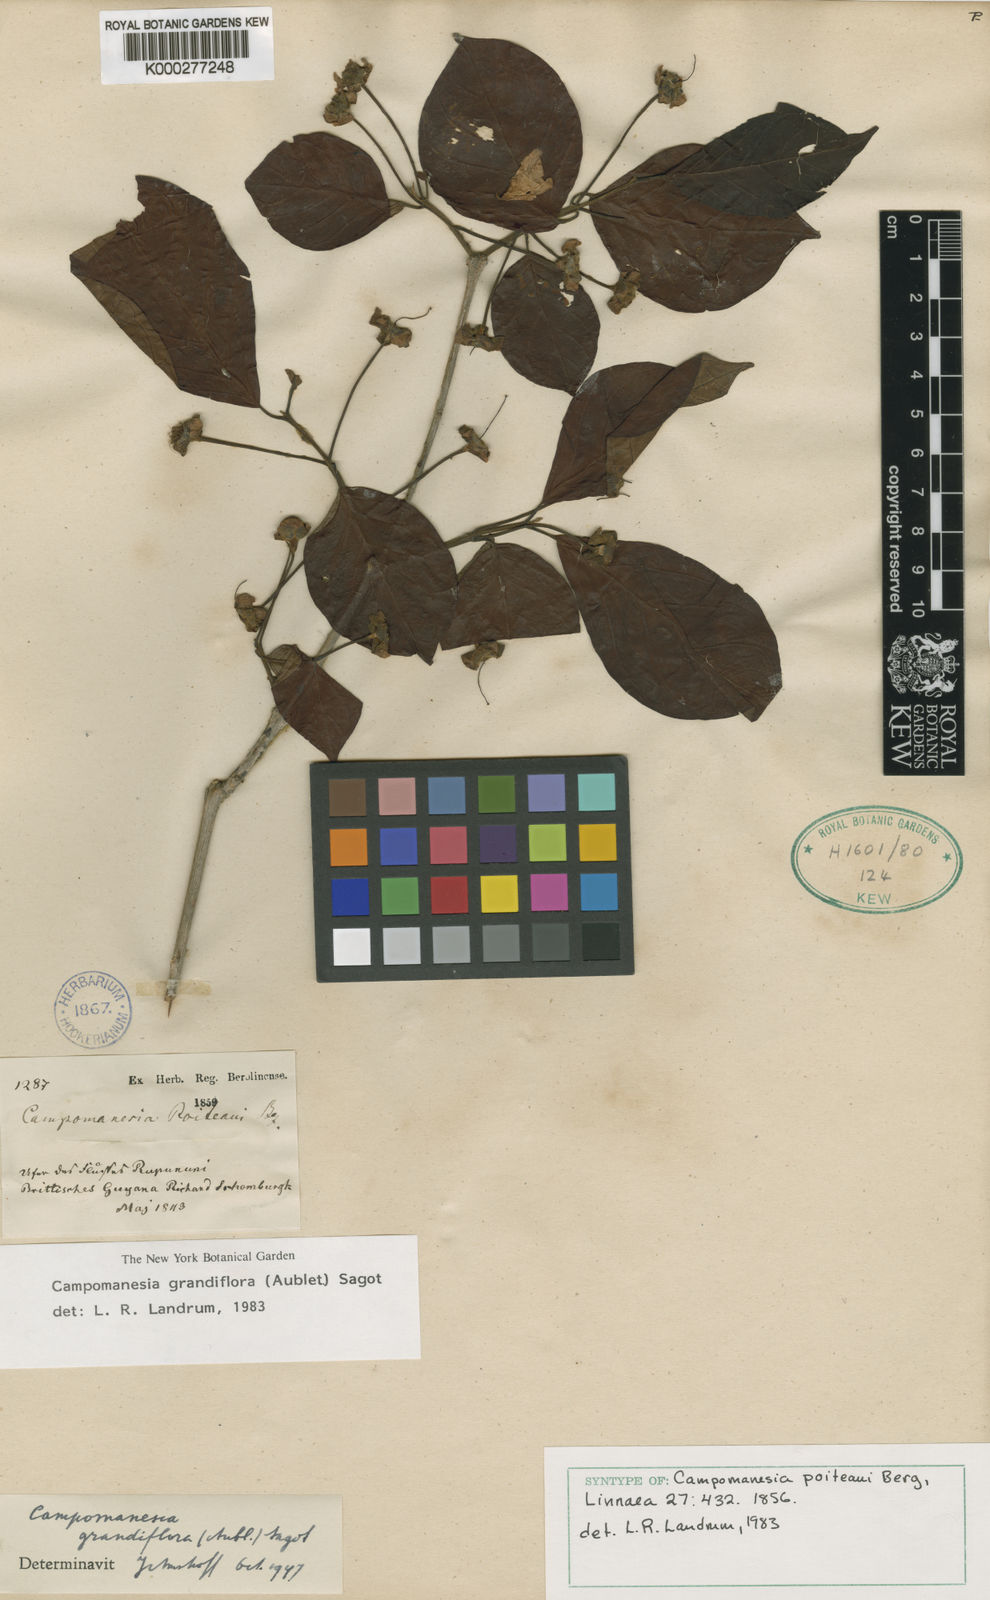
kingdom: Plantae
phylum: Tracheophyta
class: Magnoliopsida
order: Myrtales
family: Myrtaceae
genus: Campomanesia
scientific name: Campomanesia grandiflora
